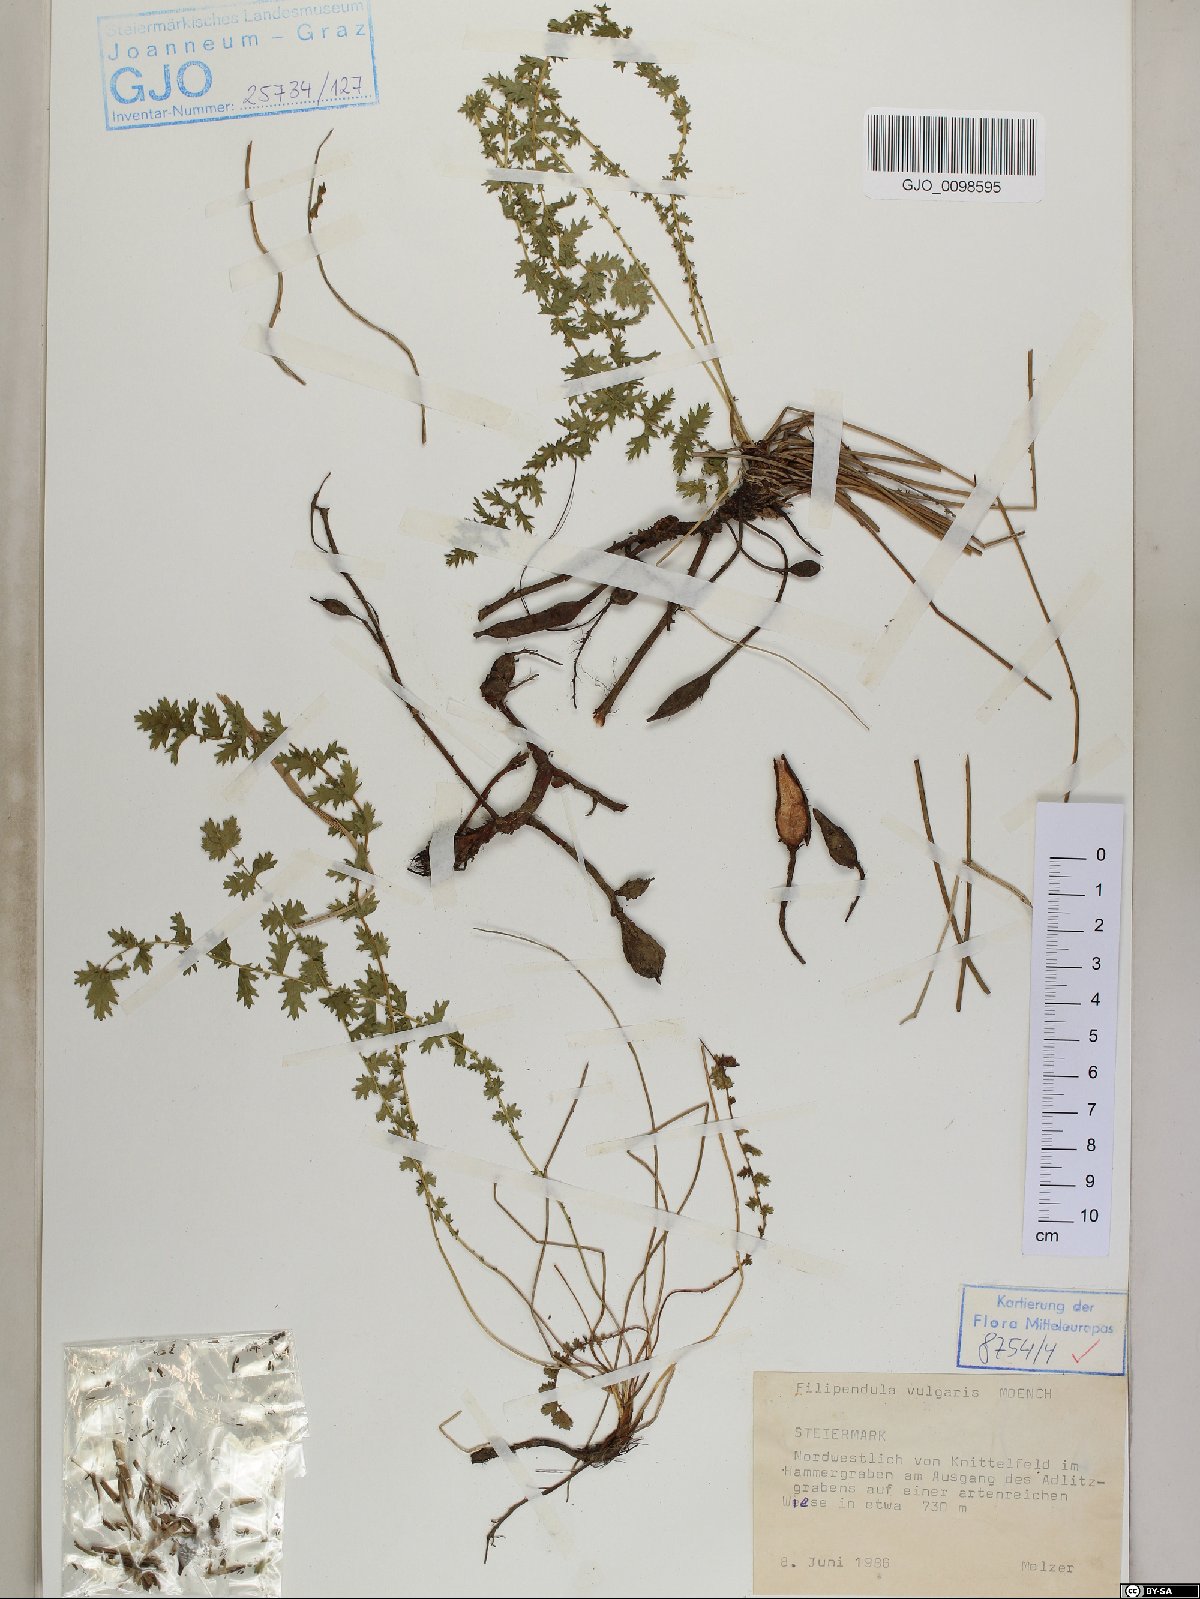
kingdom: Plantae
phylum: Tracheophyta
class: Magnoliopsida
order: Rosales
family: Rosaceae
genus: Filipendula
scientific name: Filipendula vulgaris
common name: Dropwort
